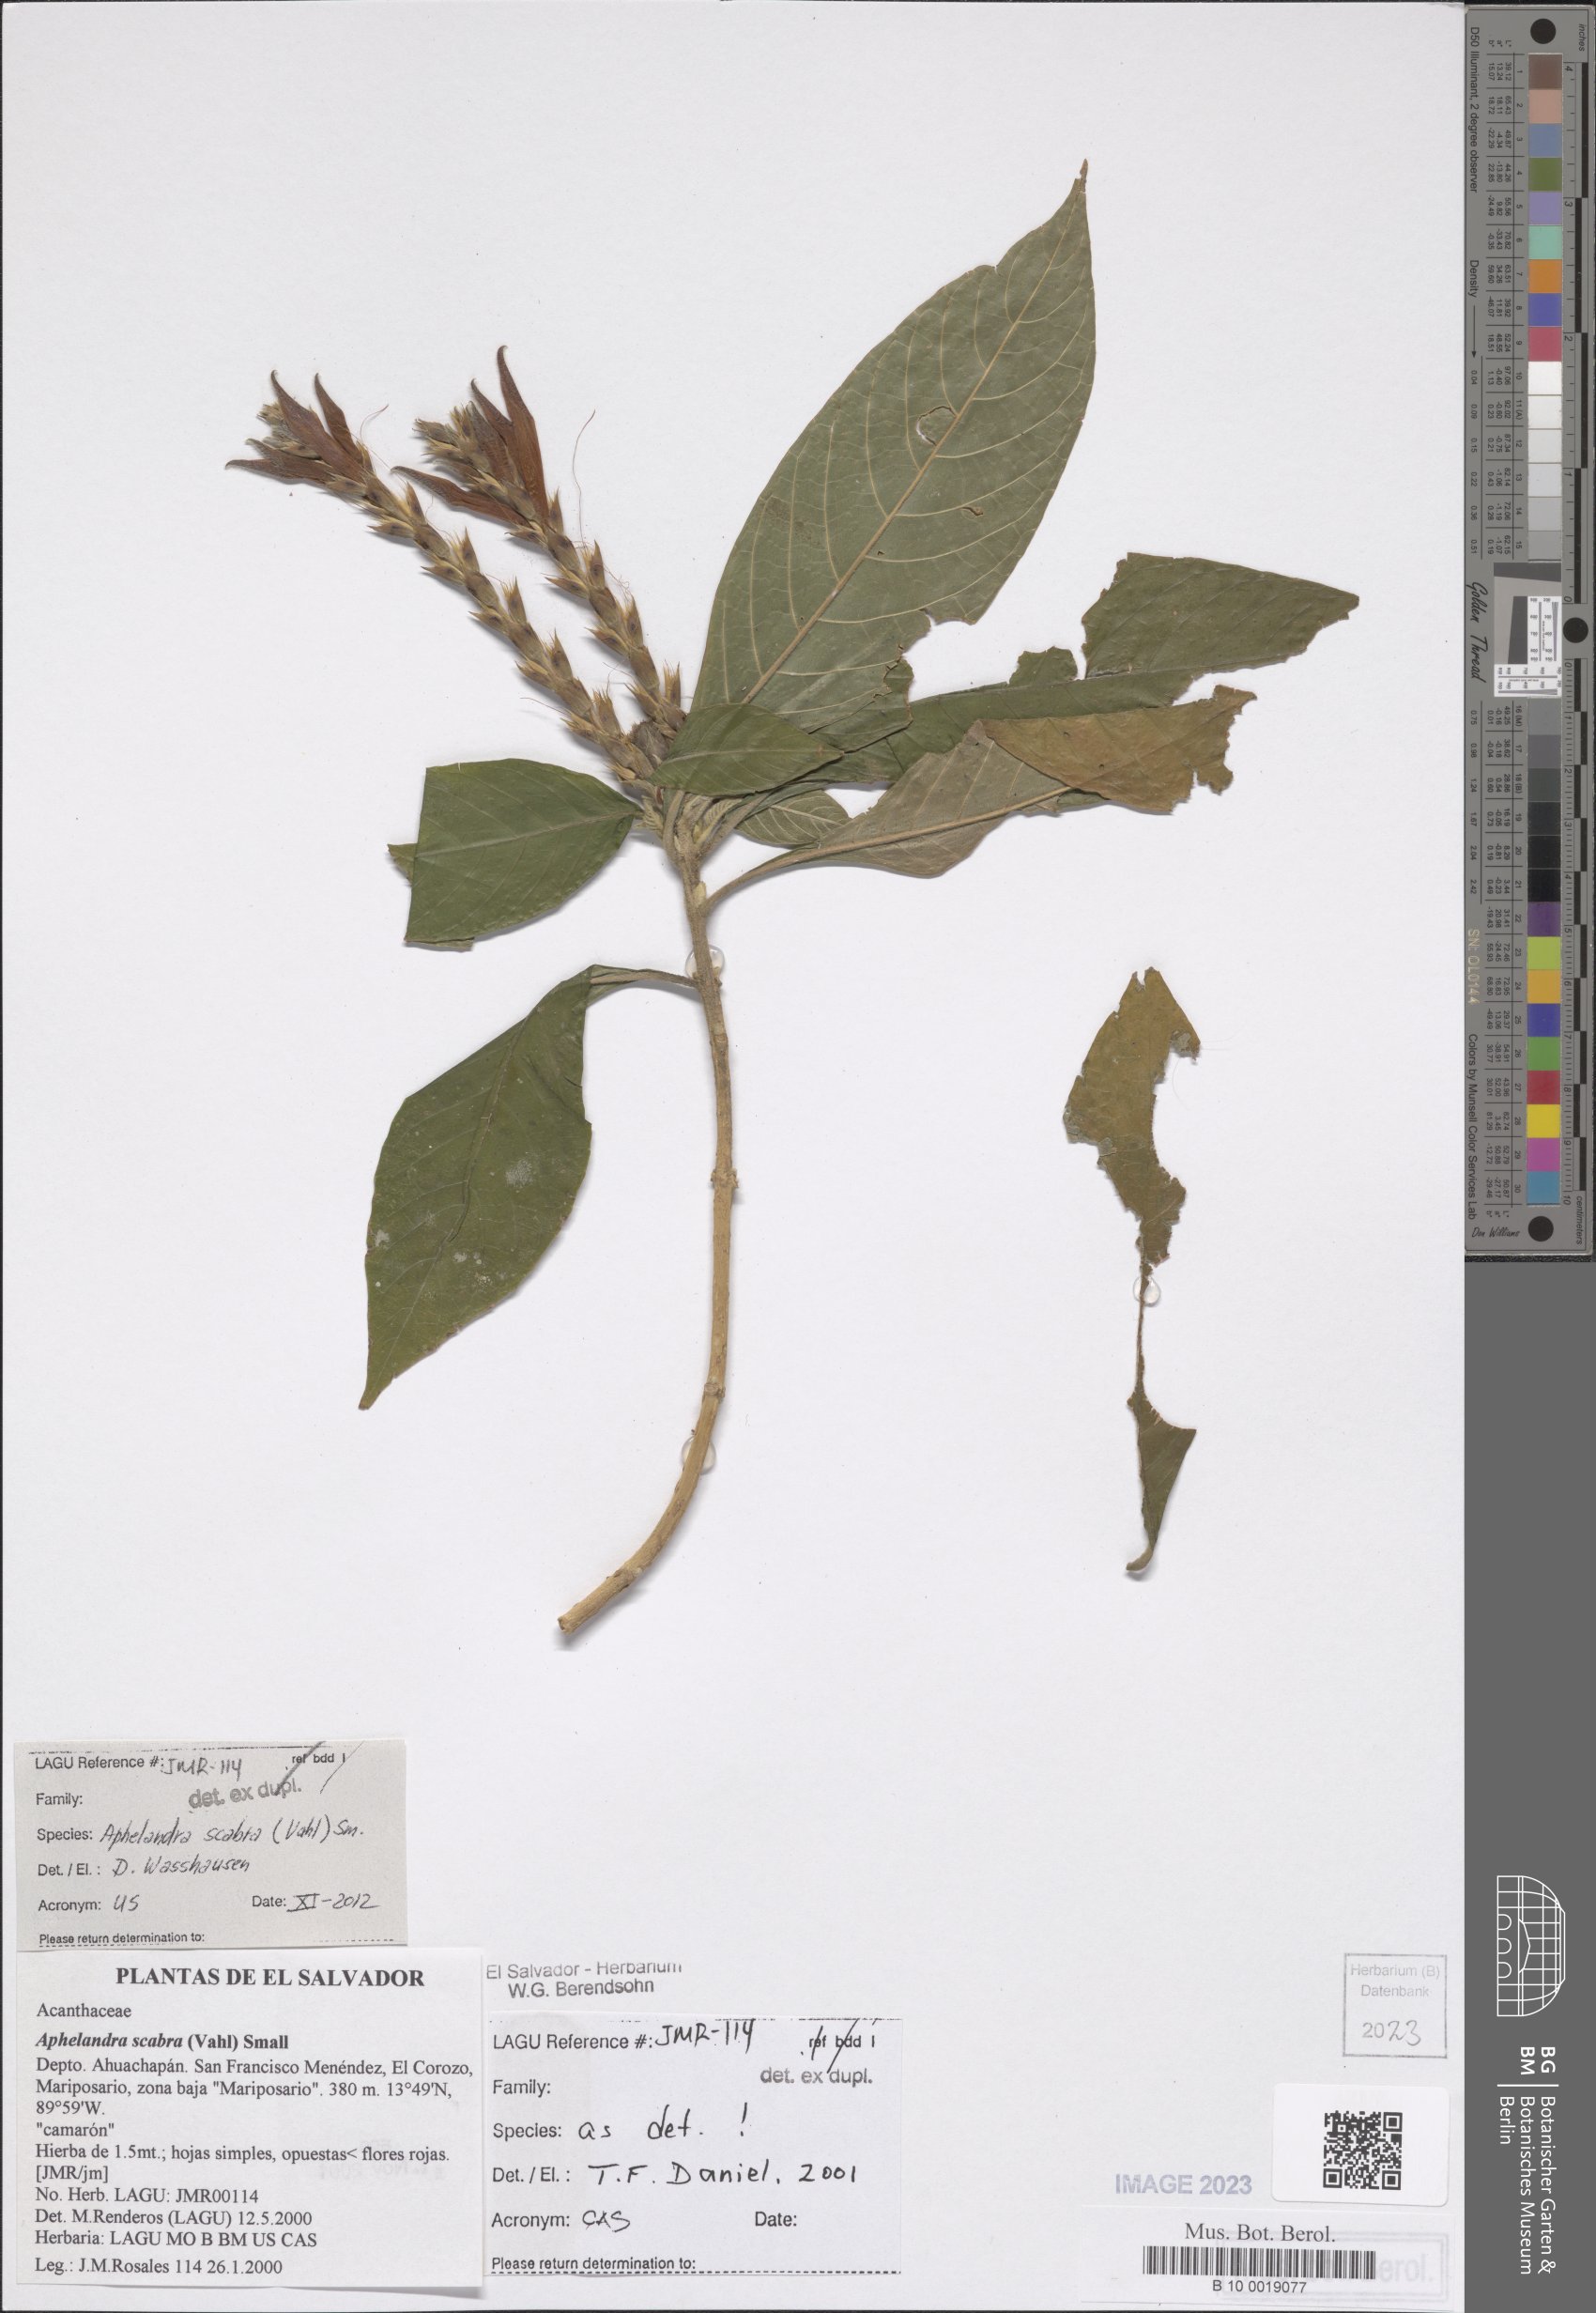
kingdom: Plantae
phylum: Tracheophyta
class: Magnoliopsida
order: Lamiales
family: Acanthaceae
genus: Aphelandra
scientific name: Aphelandra scabra
